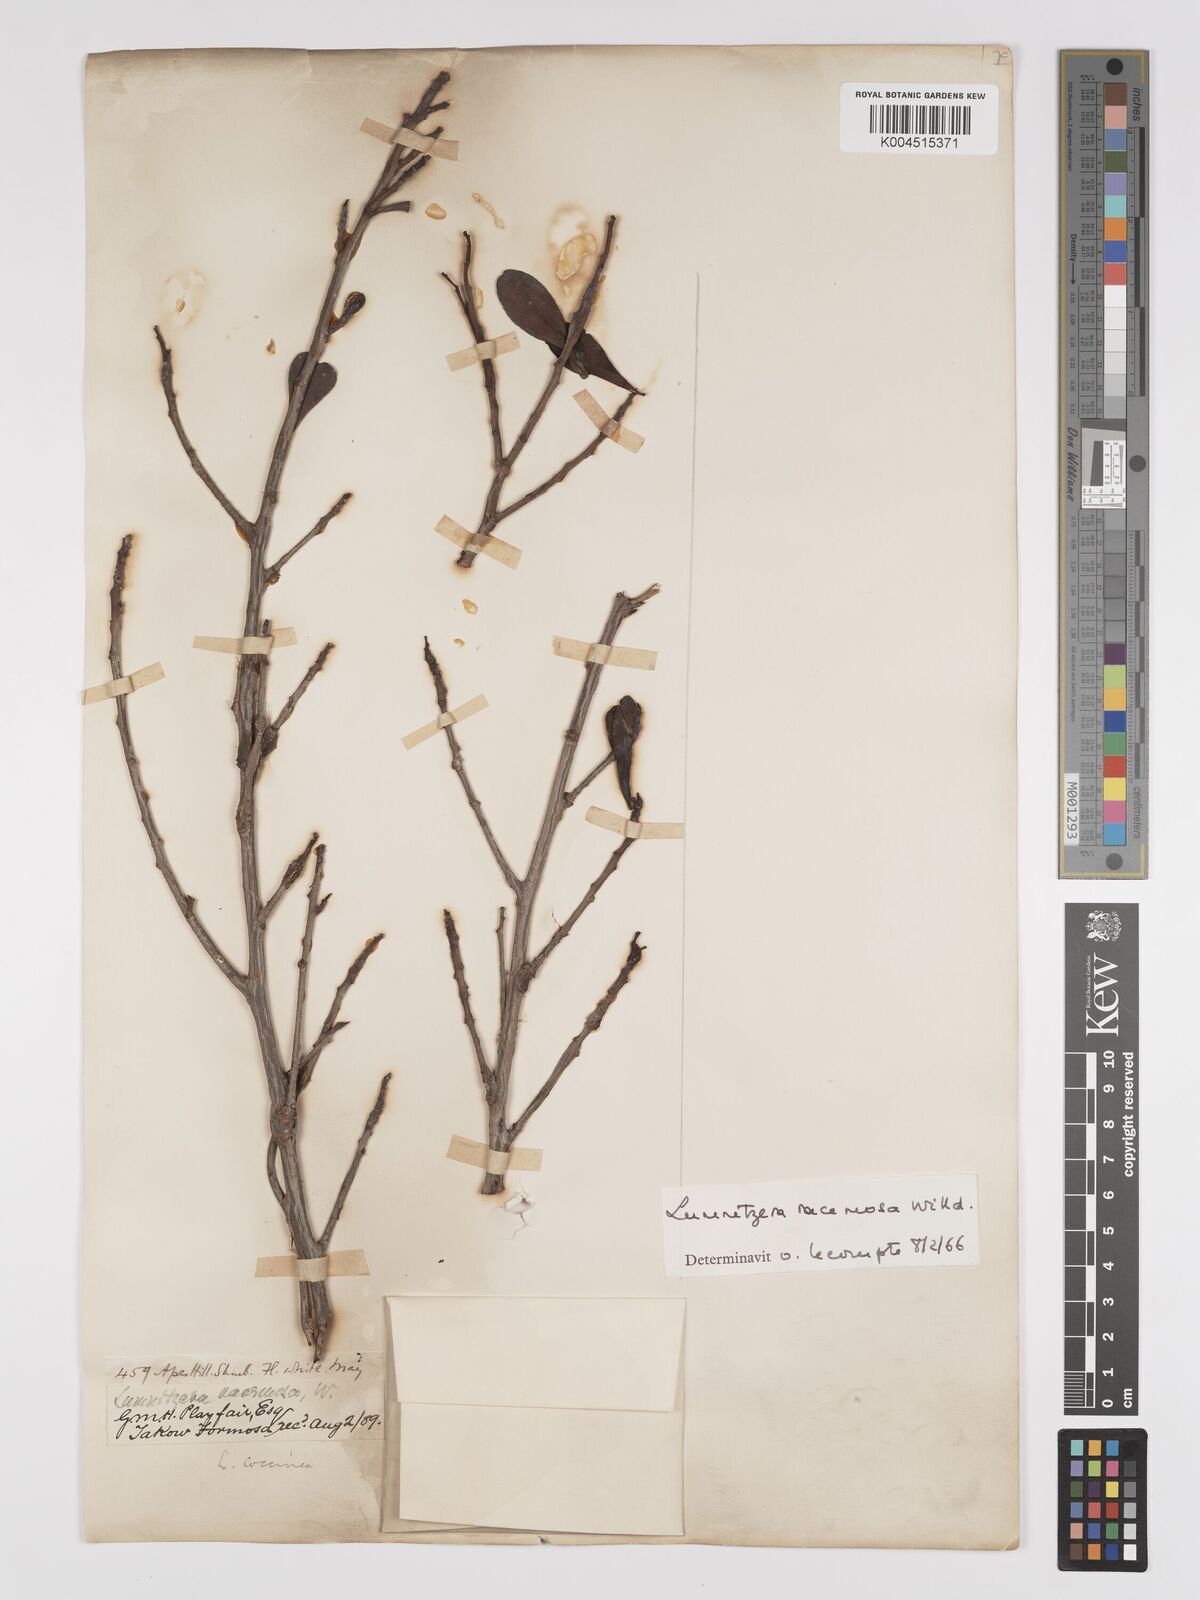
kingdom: Plantae
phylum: Tracheophyta
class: Magnoliopsida
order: Myrtales
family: Combretaceae
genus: Lumnitzera
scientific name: Lumnitzera racemosa
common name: White-flowered black mangrove
